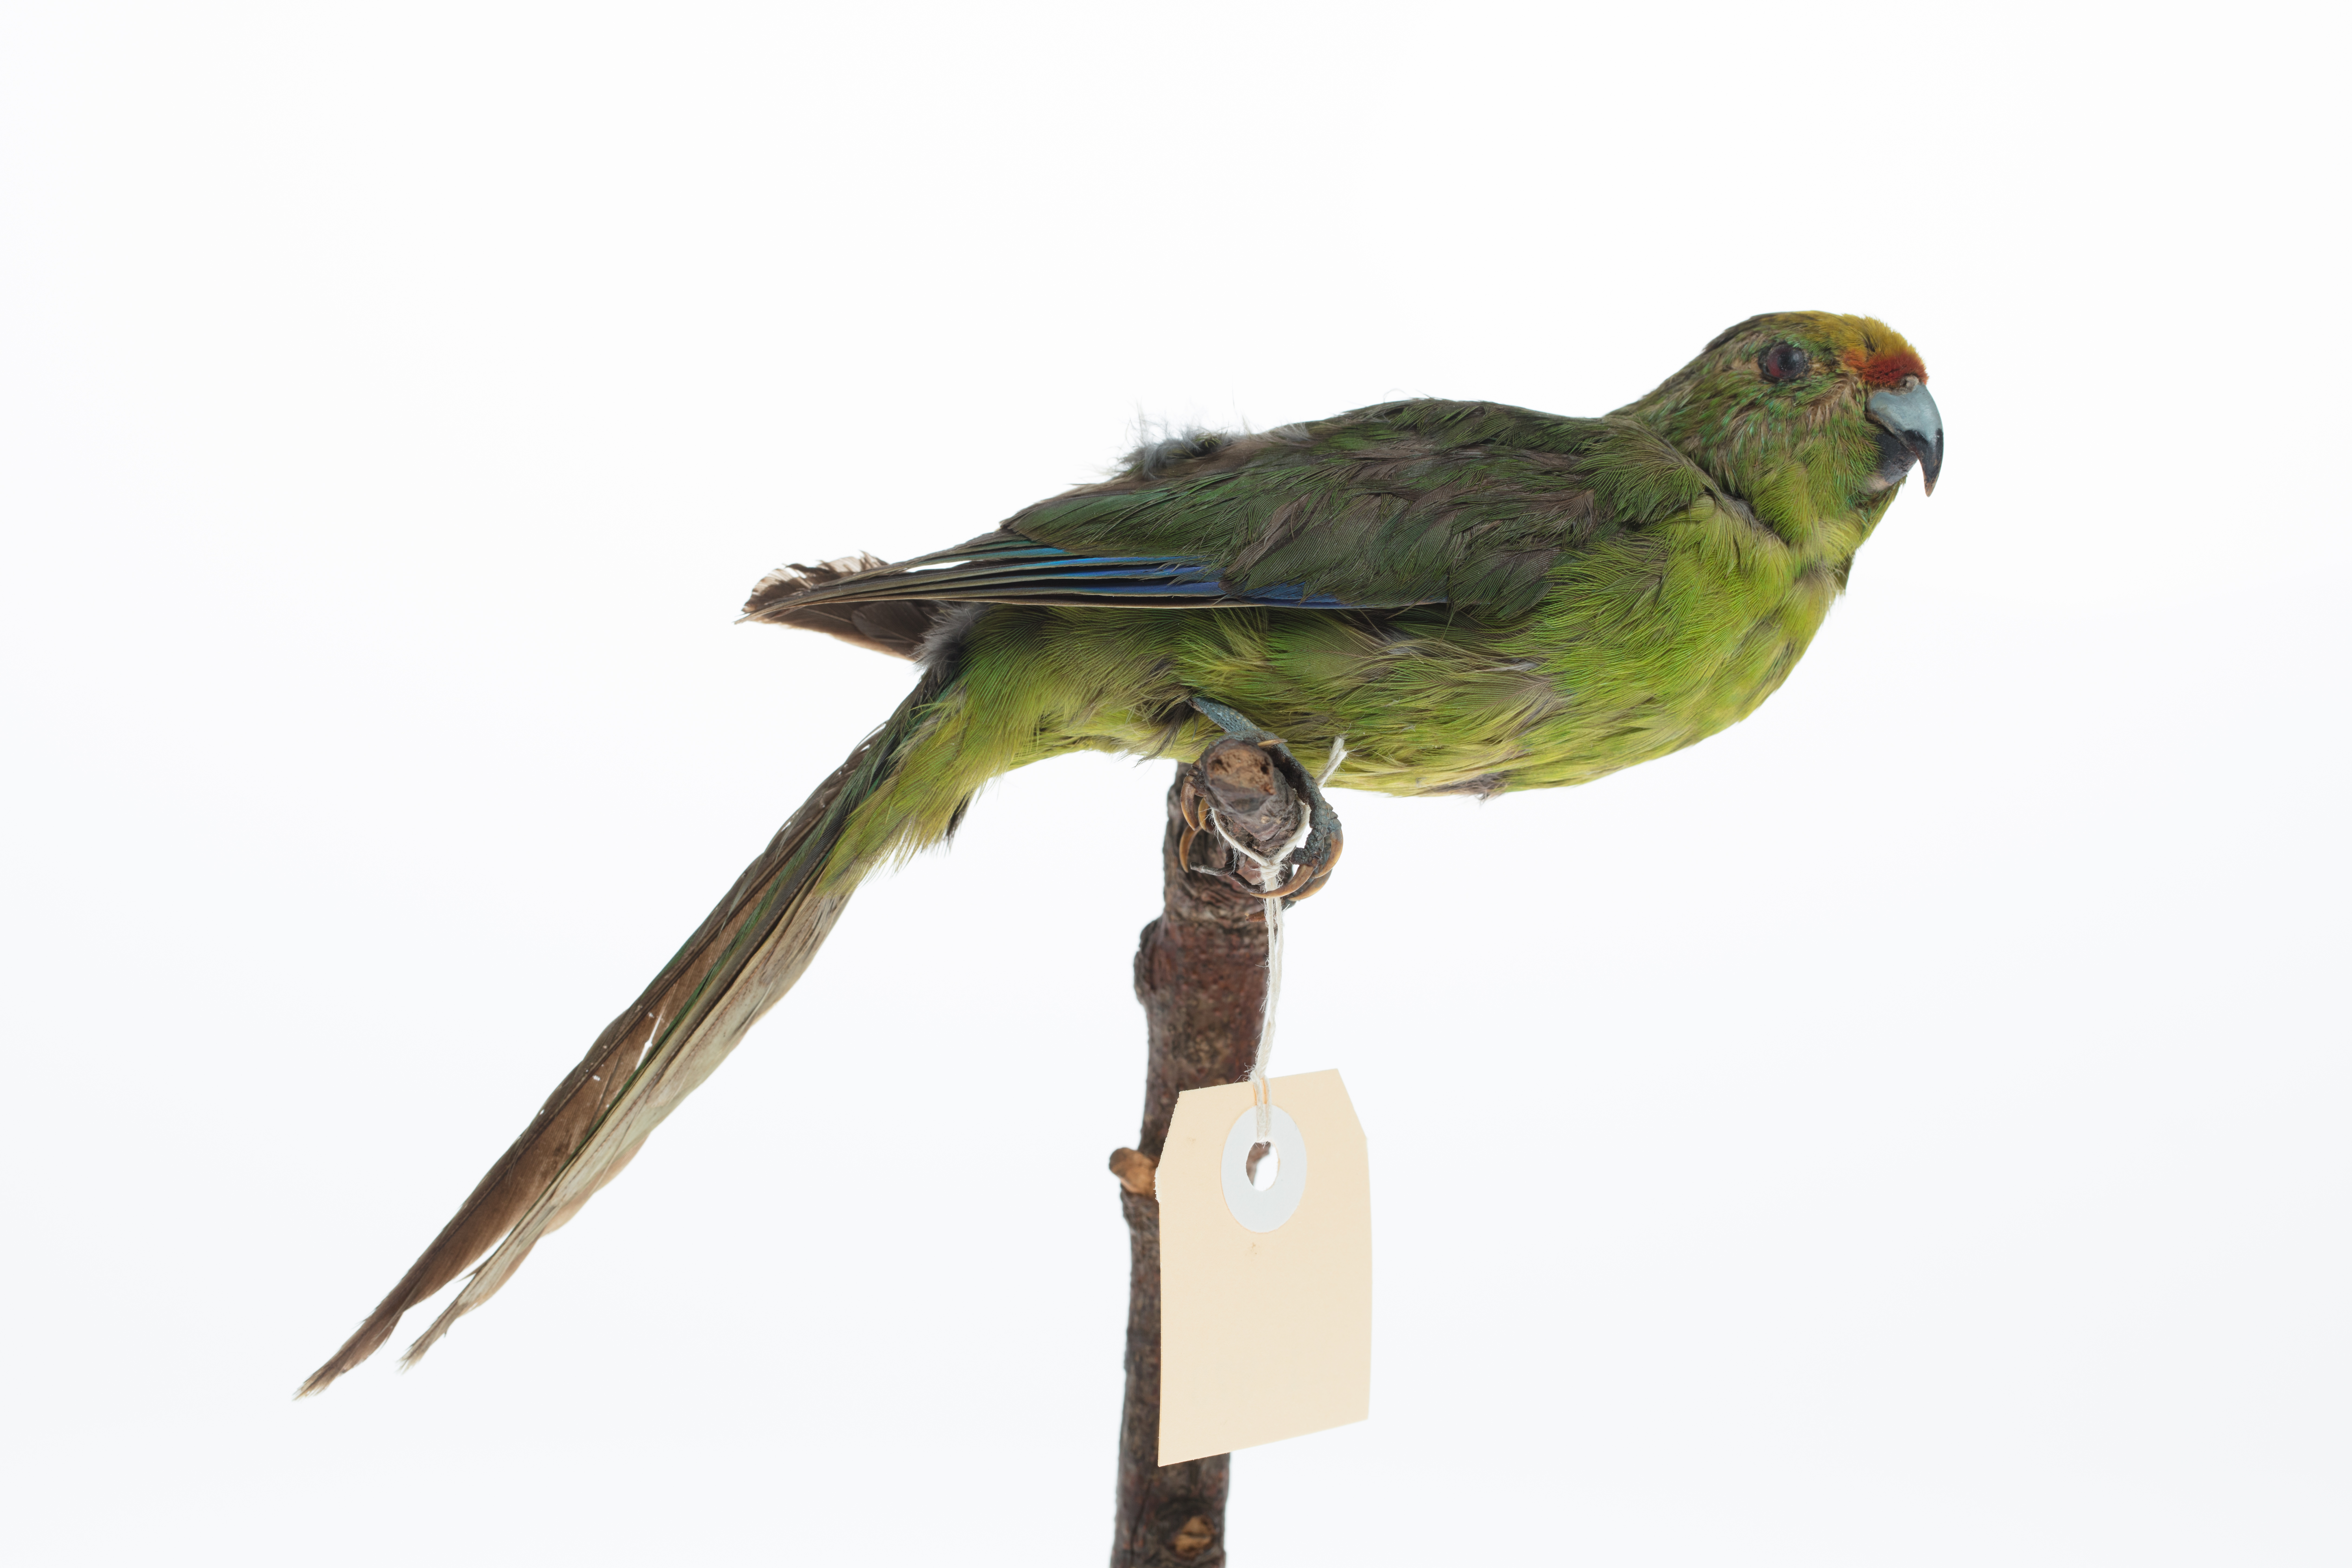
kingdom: Animalia
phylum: Chordata
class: Aves
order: Psittaciformes
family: Psittacidae
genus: Cyanoramphus
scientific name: Cyanoramphus auriceps
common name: Yellow-crowned parakeet
